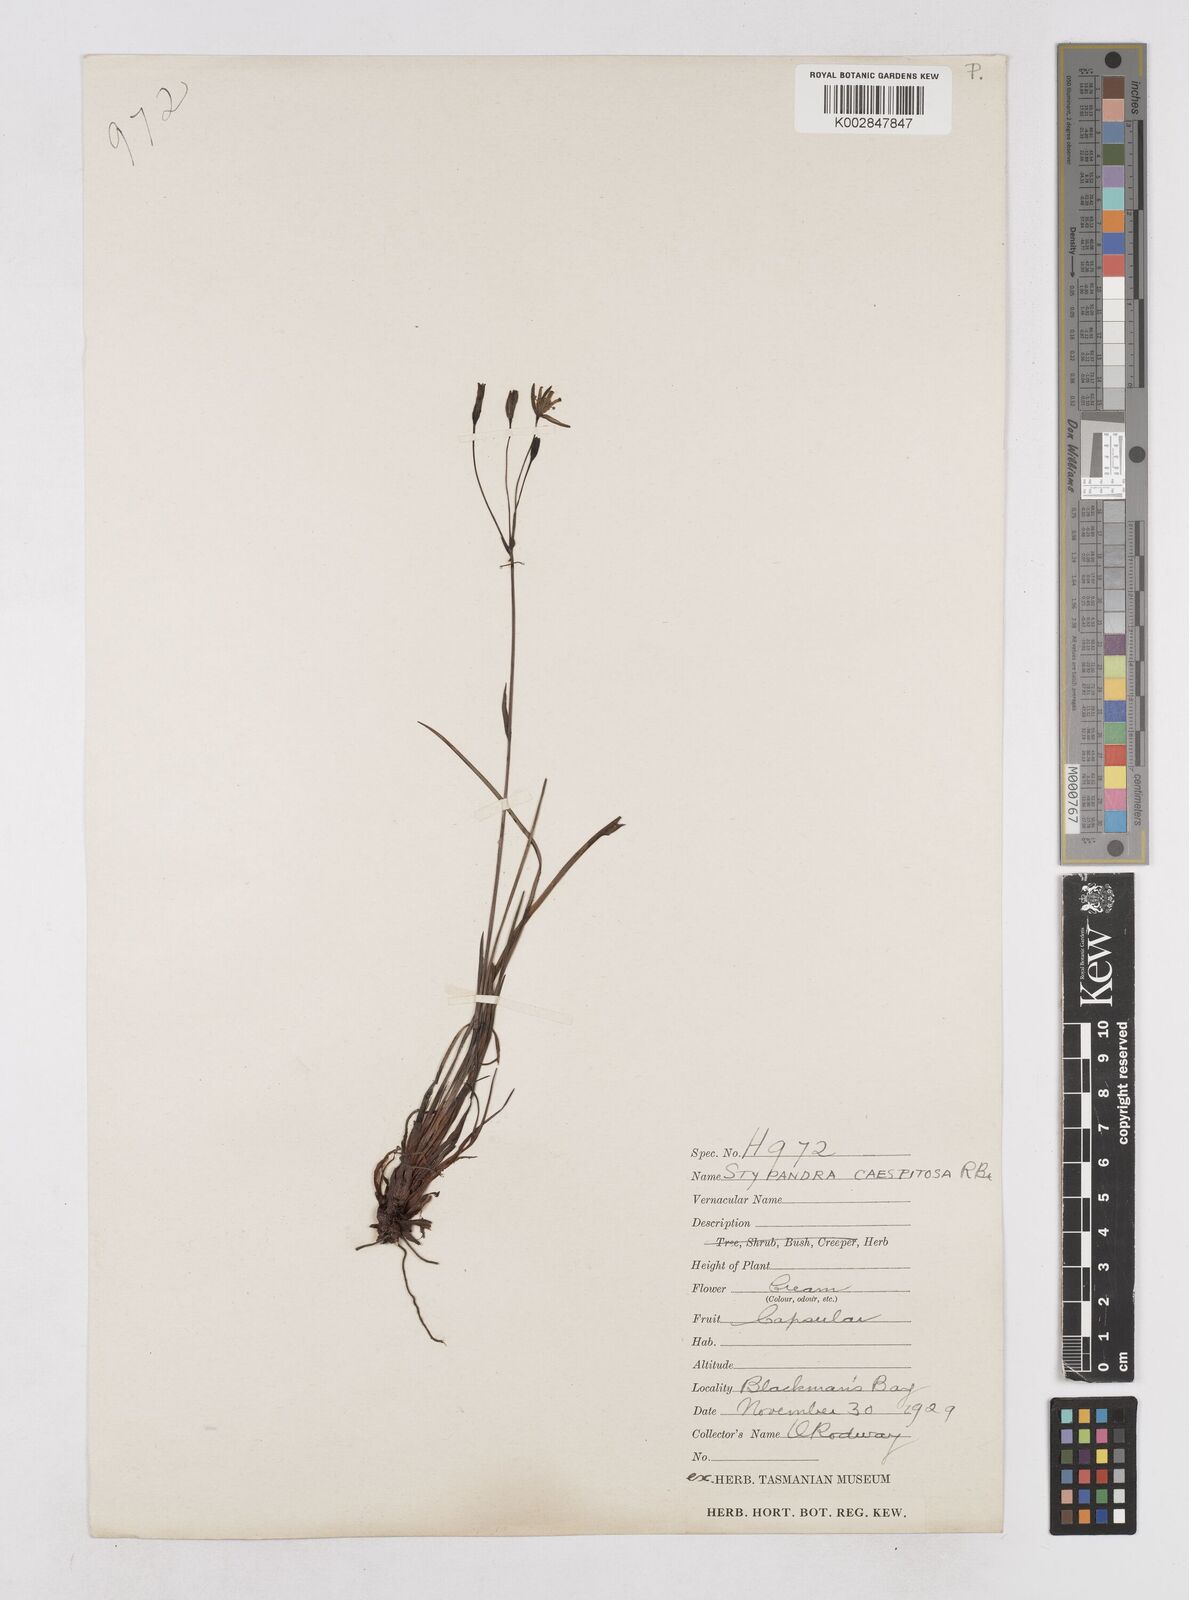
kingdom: Plantae
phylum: Tracheophyta
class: Liliopsida
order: Asparagales
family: Asphodelaceae
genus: Thelionema
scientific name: Thelionema caespitosum
